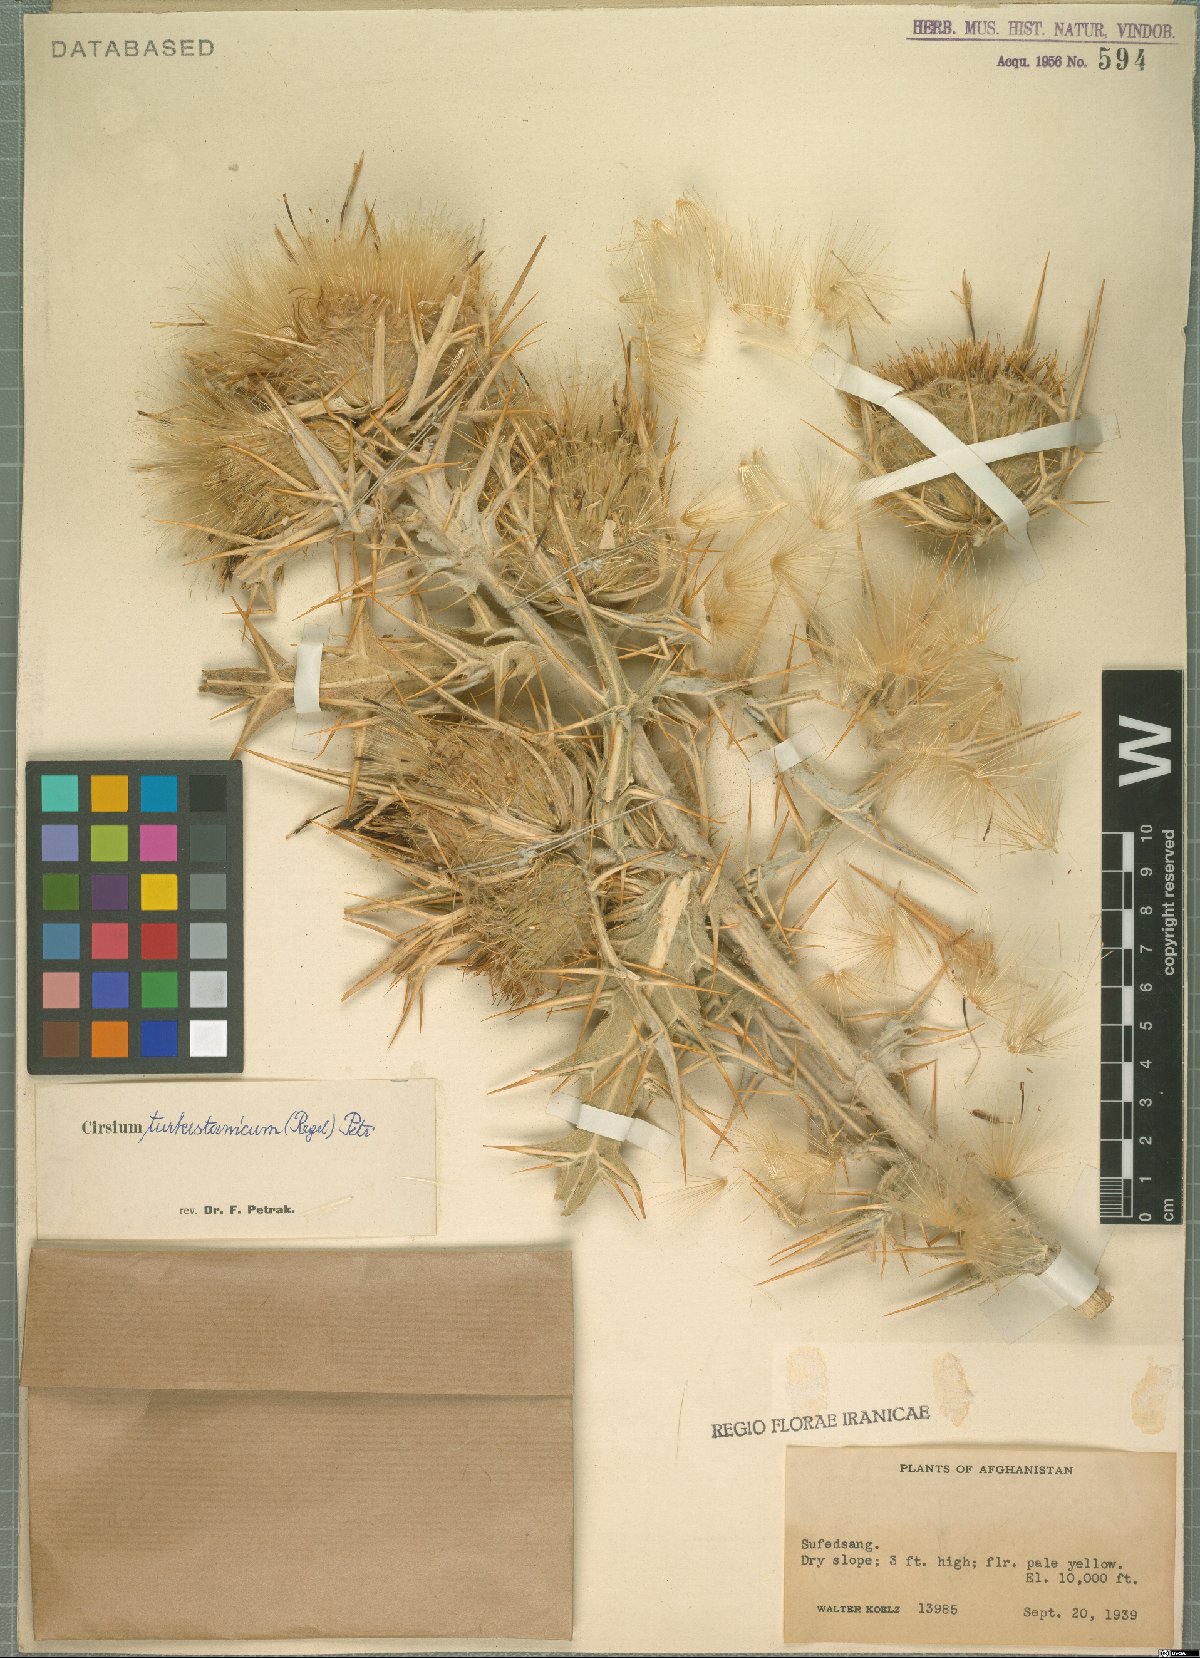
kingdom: Plantae
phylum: Tracheophyta
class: Magnoliopsida
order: Asterales
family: Asteraceae
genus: Lophiolepis
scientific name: Lophiolepis turkestanica
